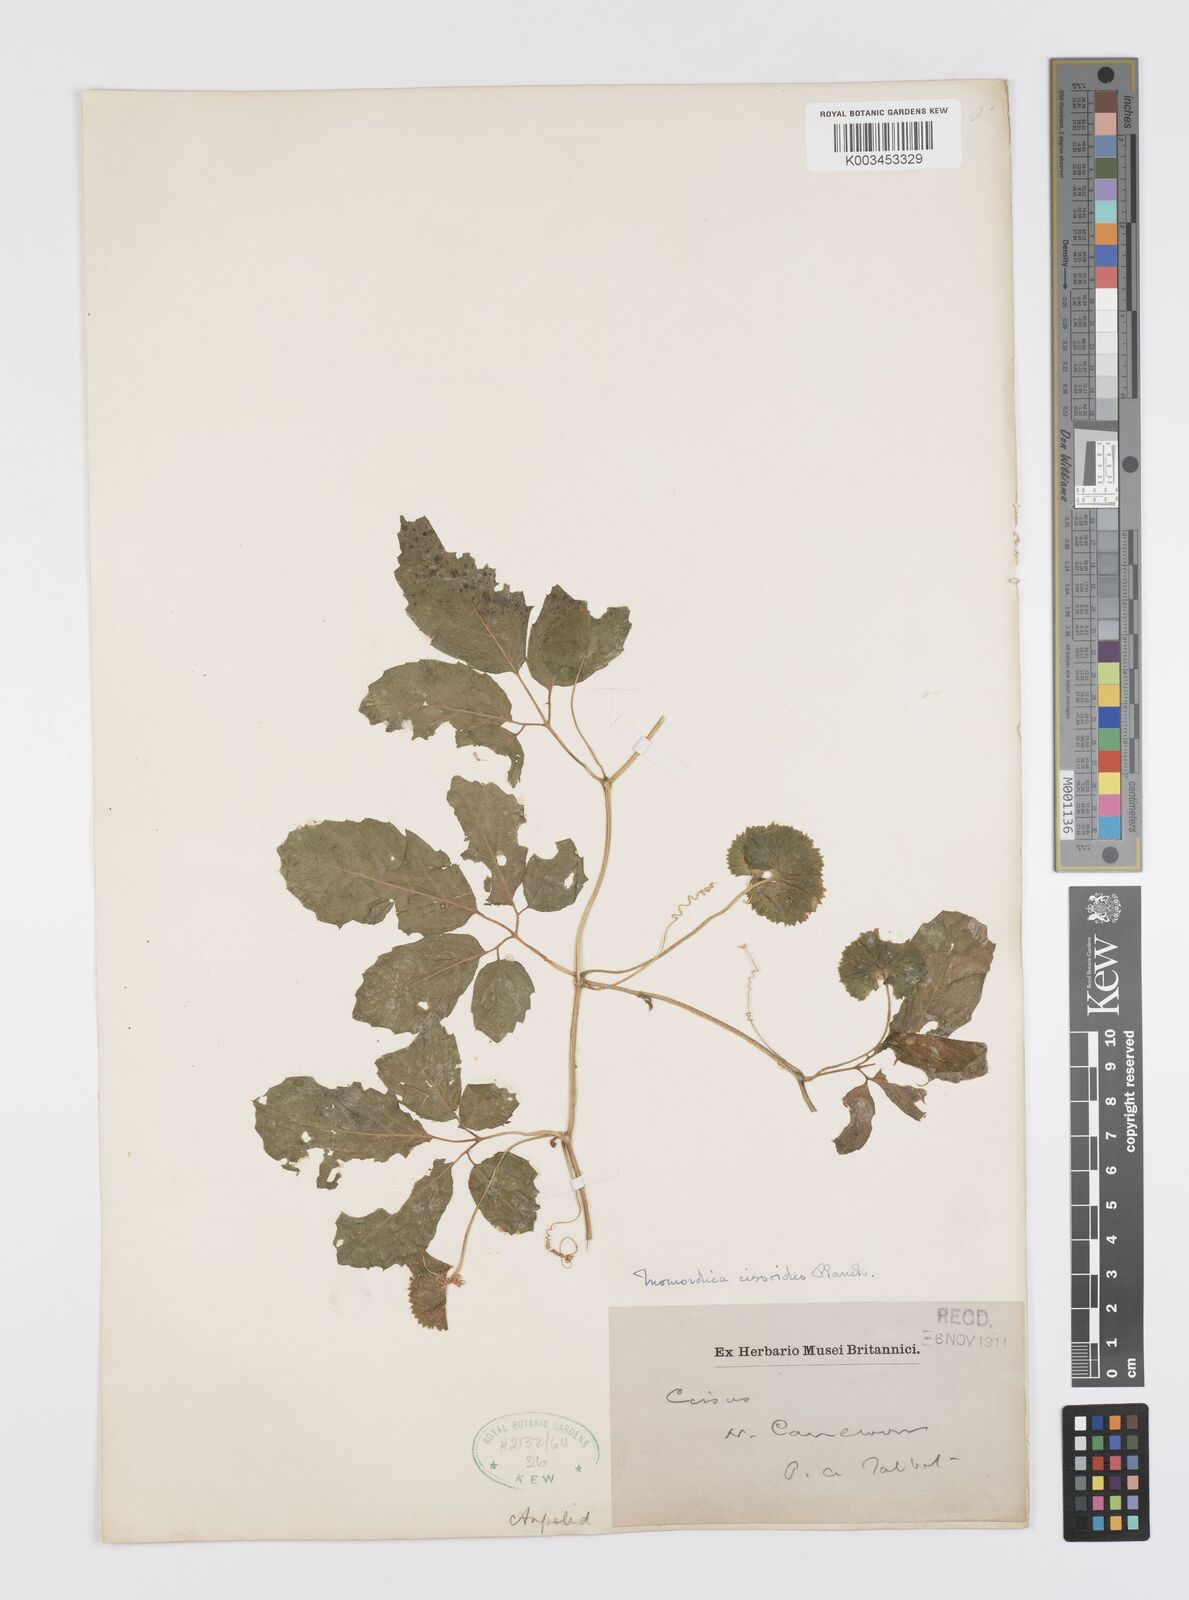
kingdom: Plantae
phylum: Tracheophyta
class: Magnoliopsida
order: Cucurbitales
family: Cucurbitaceae
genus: Momordica
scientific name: Momordica cissoides
